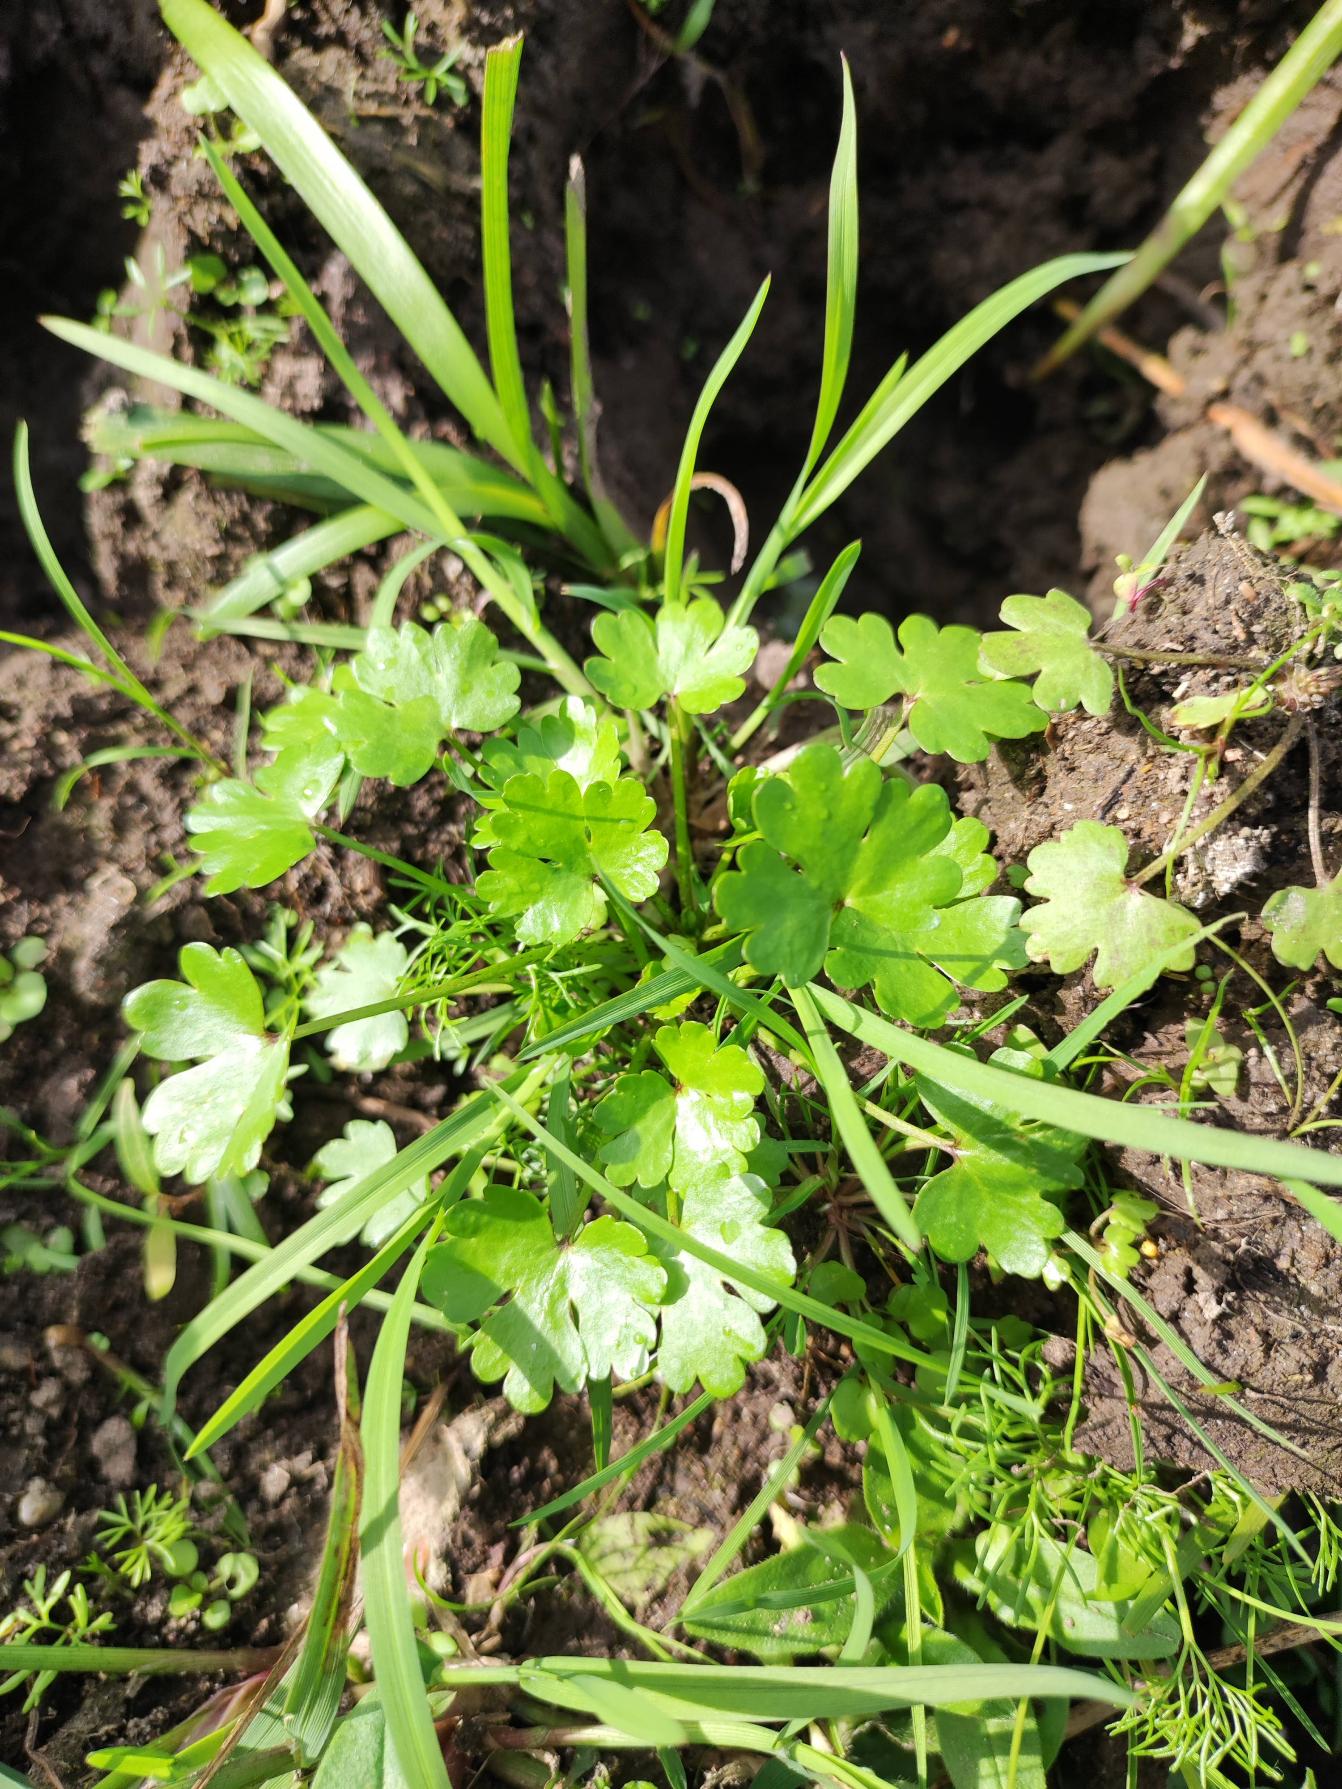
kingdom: Plantae
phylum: Tracheophyta
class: Magnoliopsida
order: Ranunculales
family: Ranunculaceae
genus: Ranunculus
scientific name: Ranunculus sceleratus
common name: Tigger-ranunkel
